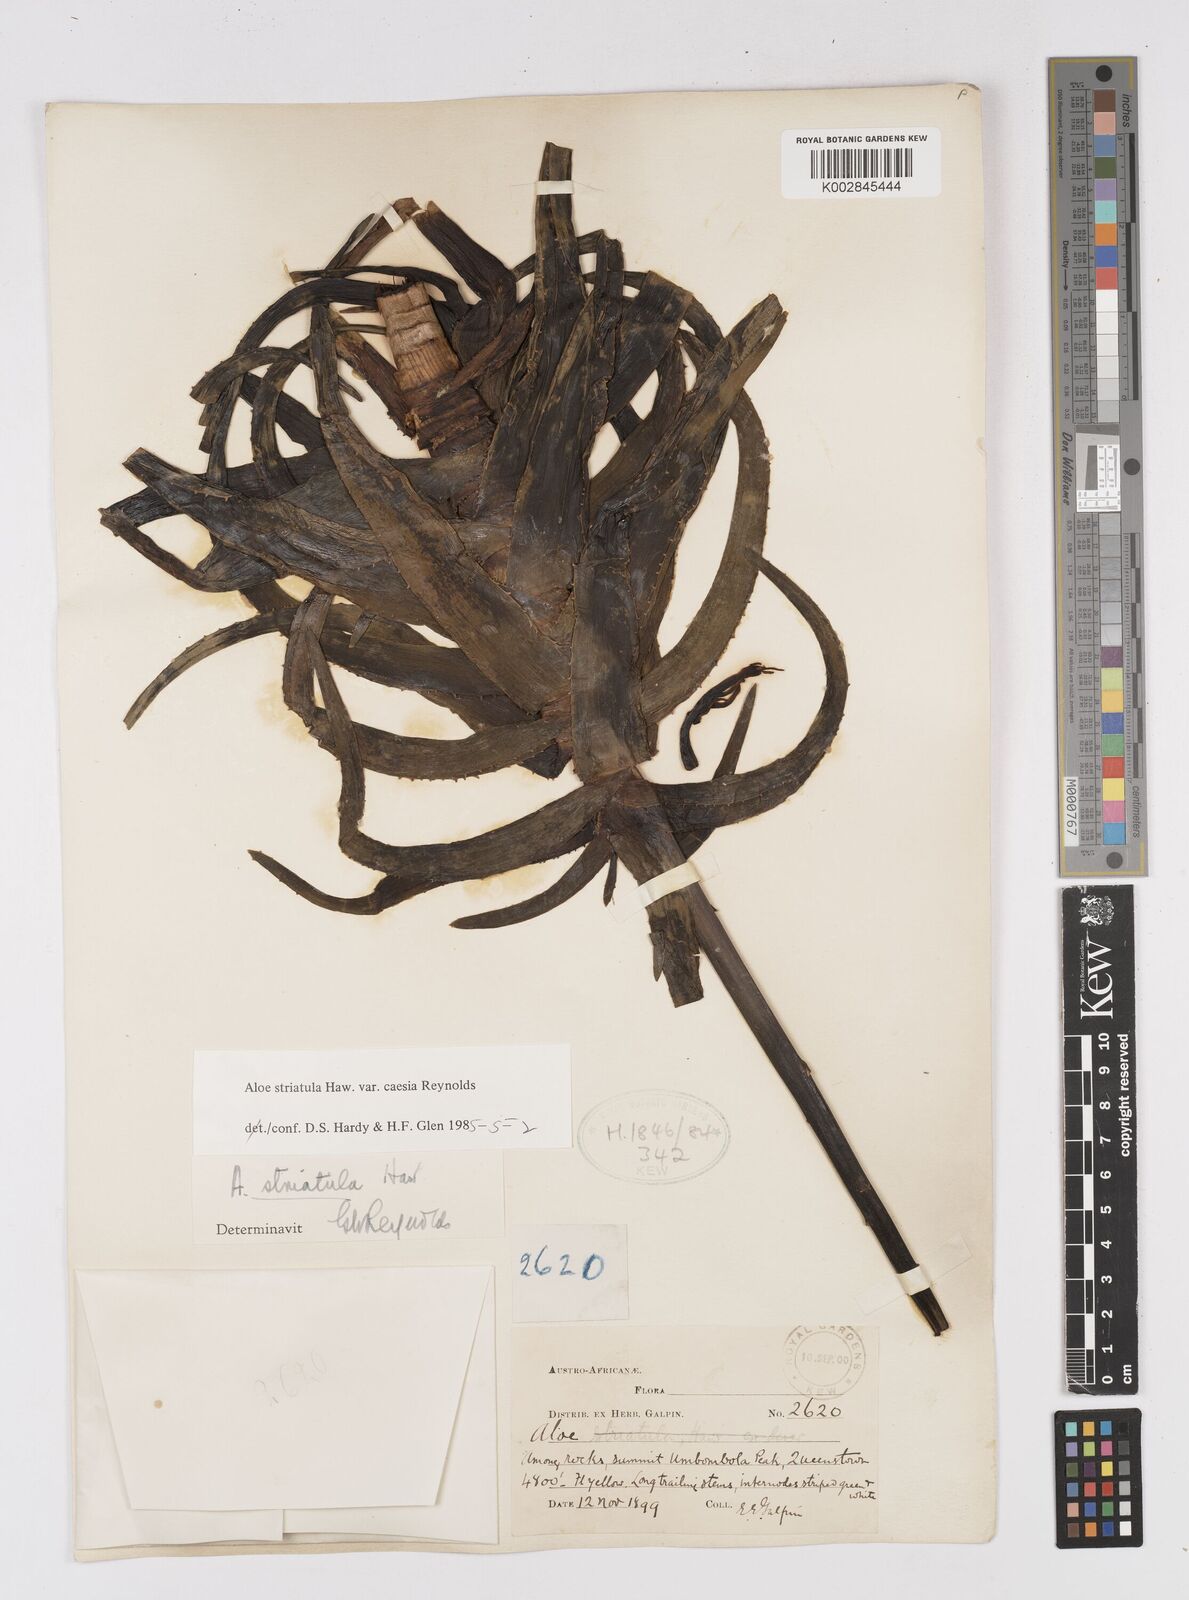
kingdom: Plantae
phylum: Tracheophyta
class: Liliopsida
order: Asparagales
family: Asphodelaceae
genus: Aloiampelos
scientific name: Aloiampelos striatula
